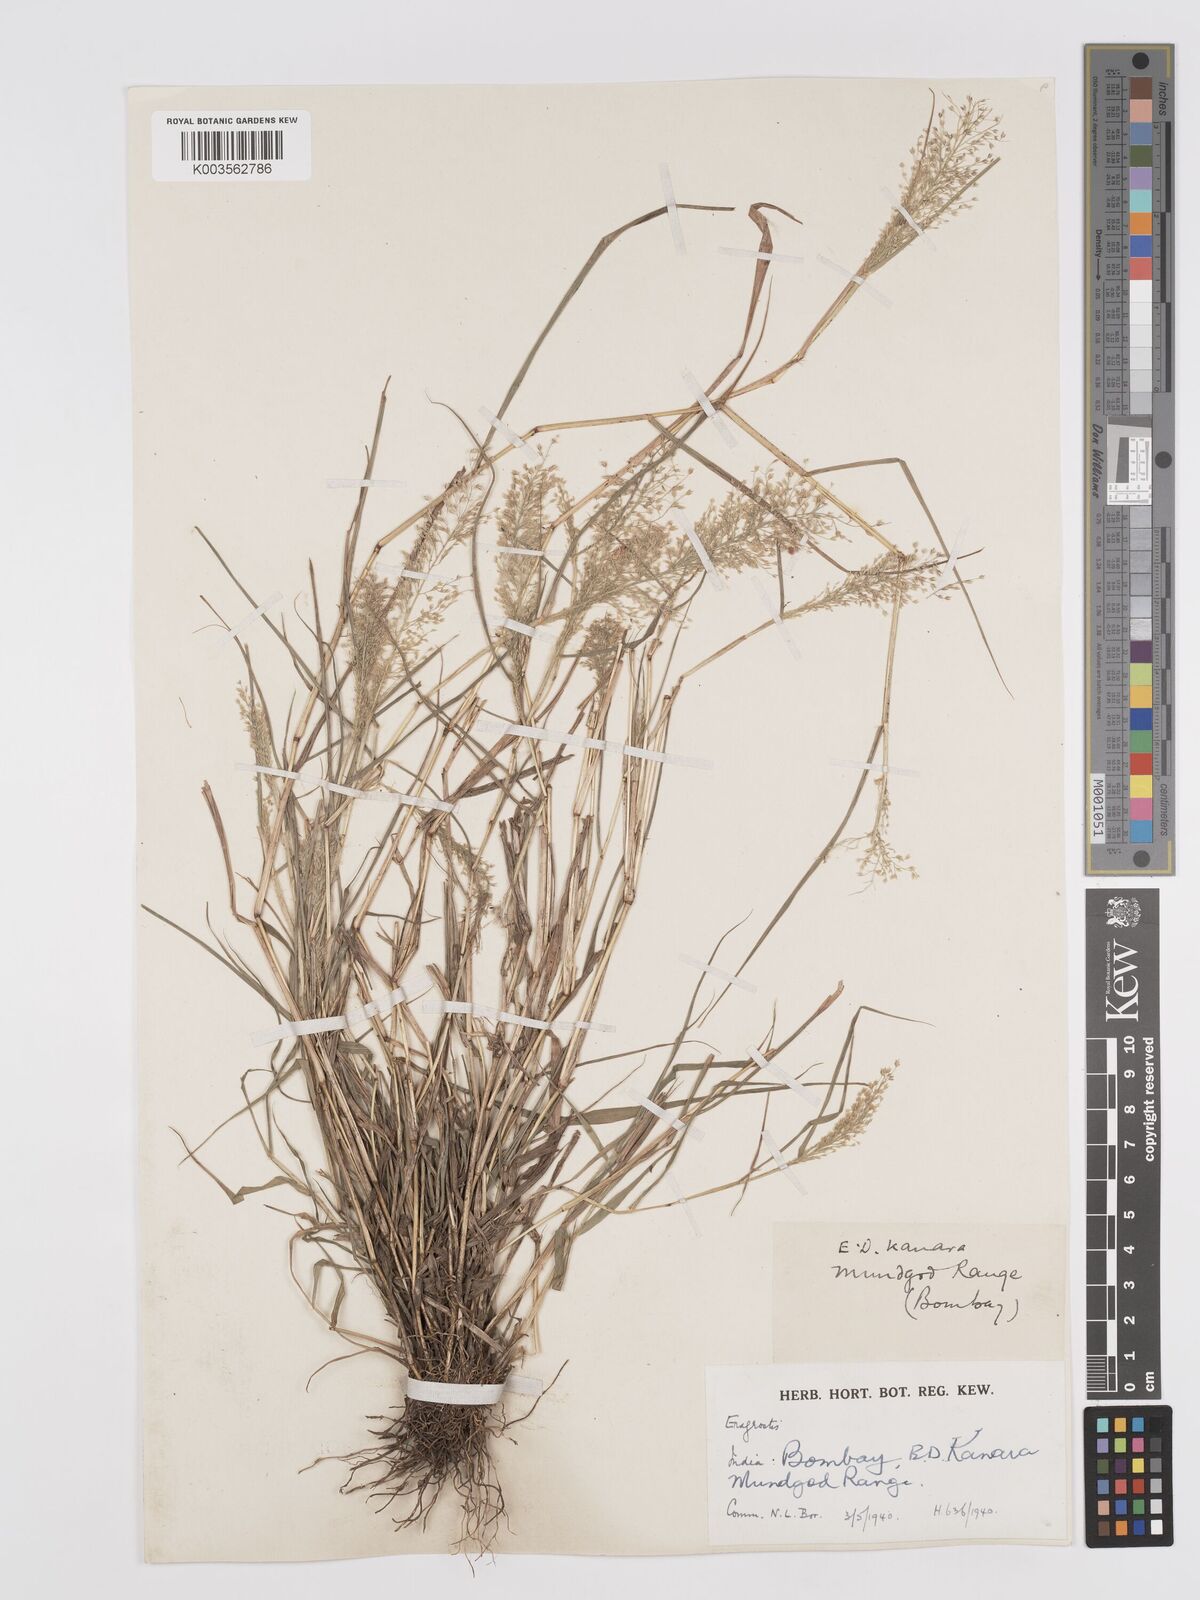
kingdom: Plantae
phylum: Tracheophyta
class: Liliopsida
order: Poales
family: Poaceae
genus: Eragrostis
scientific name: Eragrostis viscosa
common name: Sticky love grass
